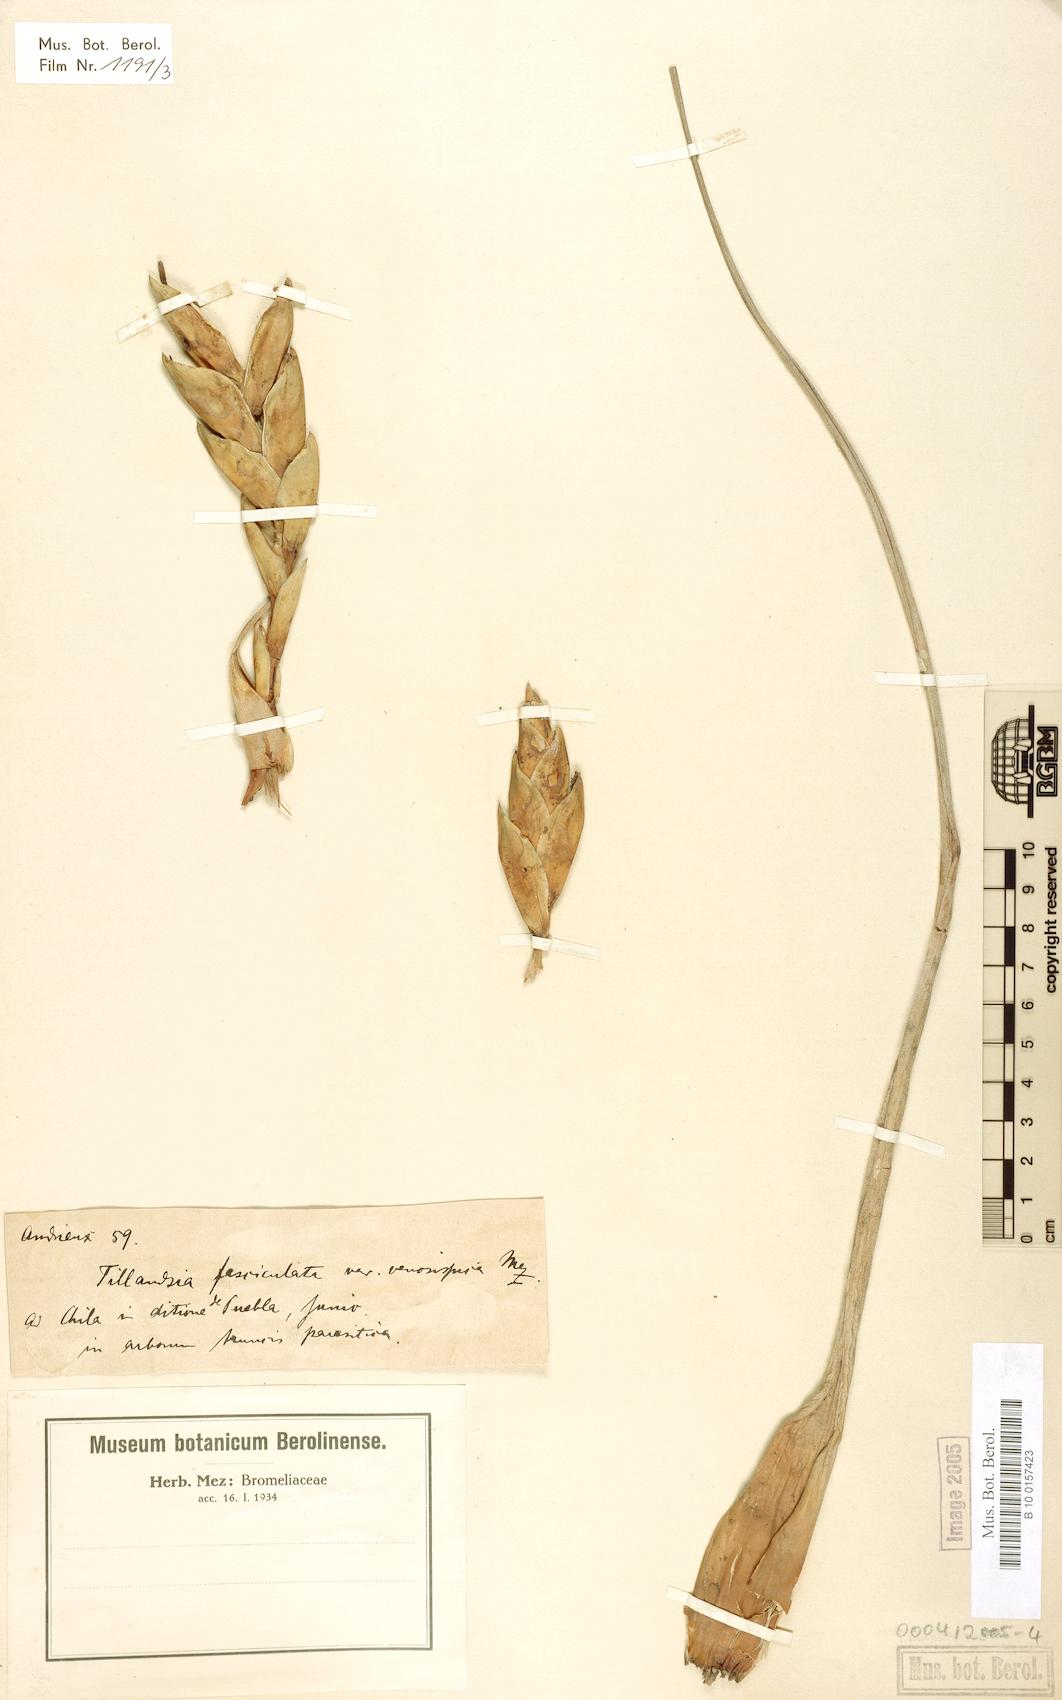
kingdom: Plantae
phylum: Tracheophyta
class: Liliopsida
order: Poales
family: Bromeliaceae
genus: Tillandsia
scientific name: Tillandsia compressa
